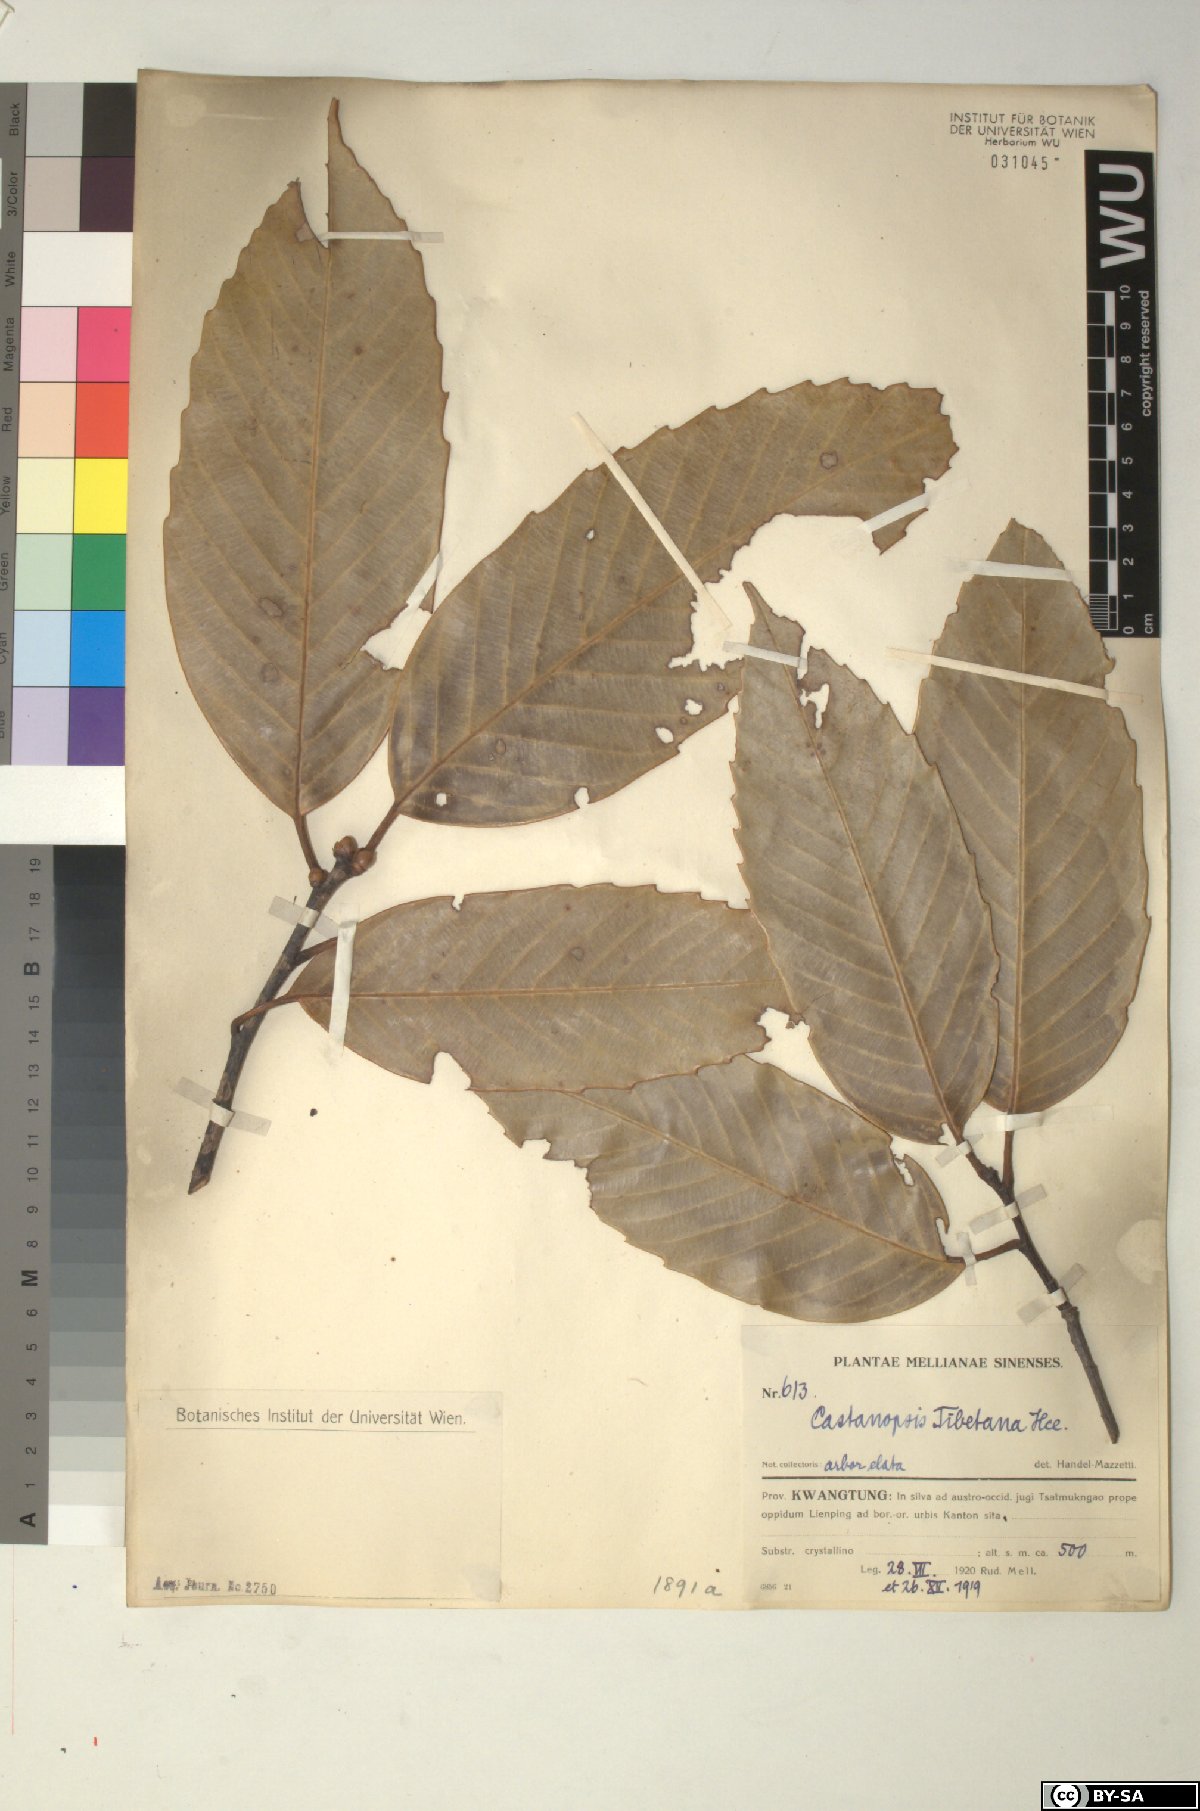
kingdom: Plantae
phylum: Tracheophyta
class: Magnoliopsida
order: Fagales
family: Fagaceae
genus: Castanopsis
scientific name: Castanopsis tibetana
